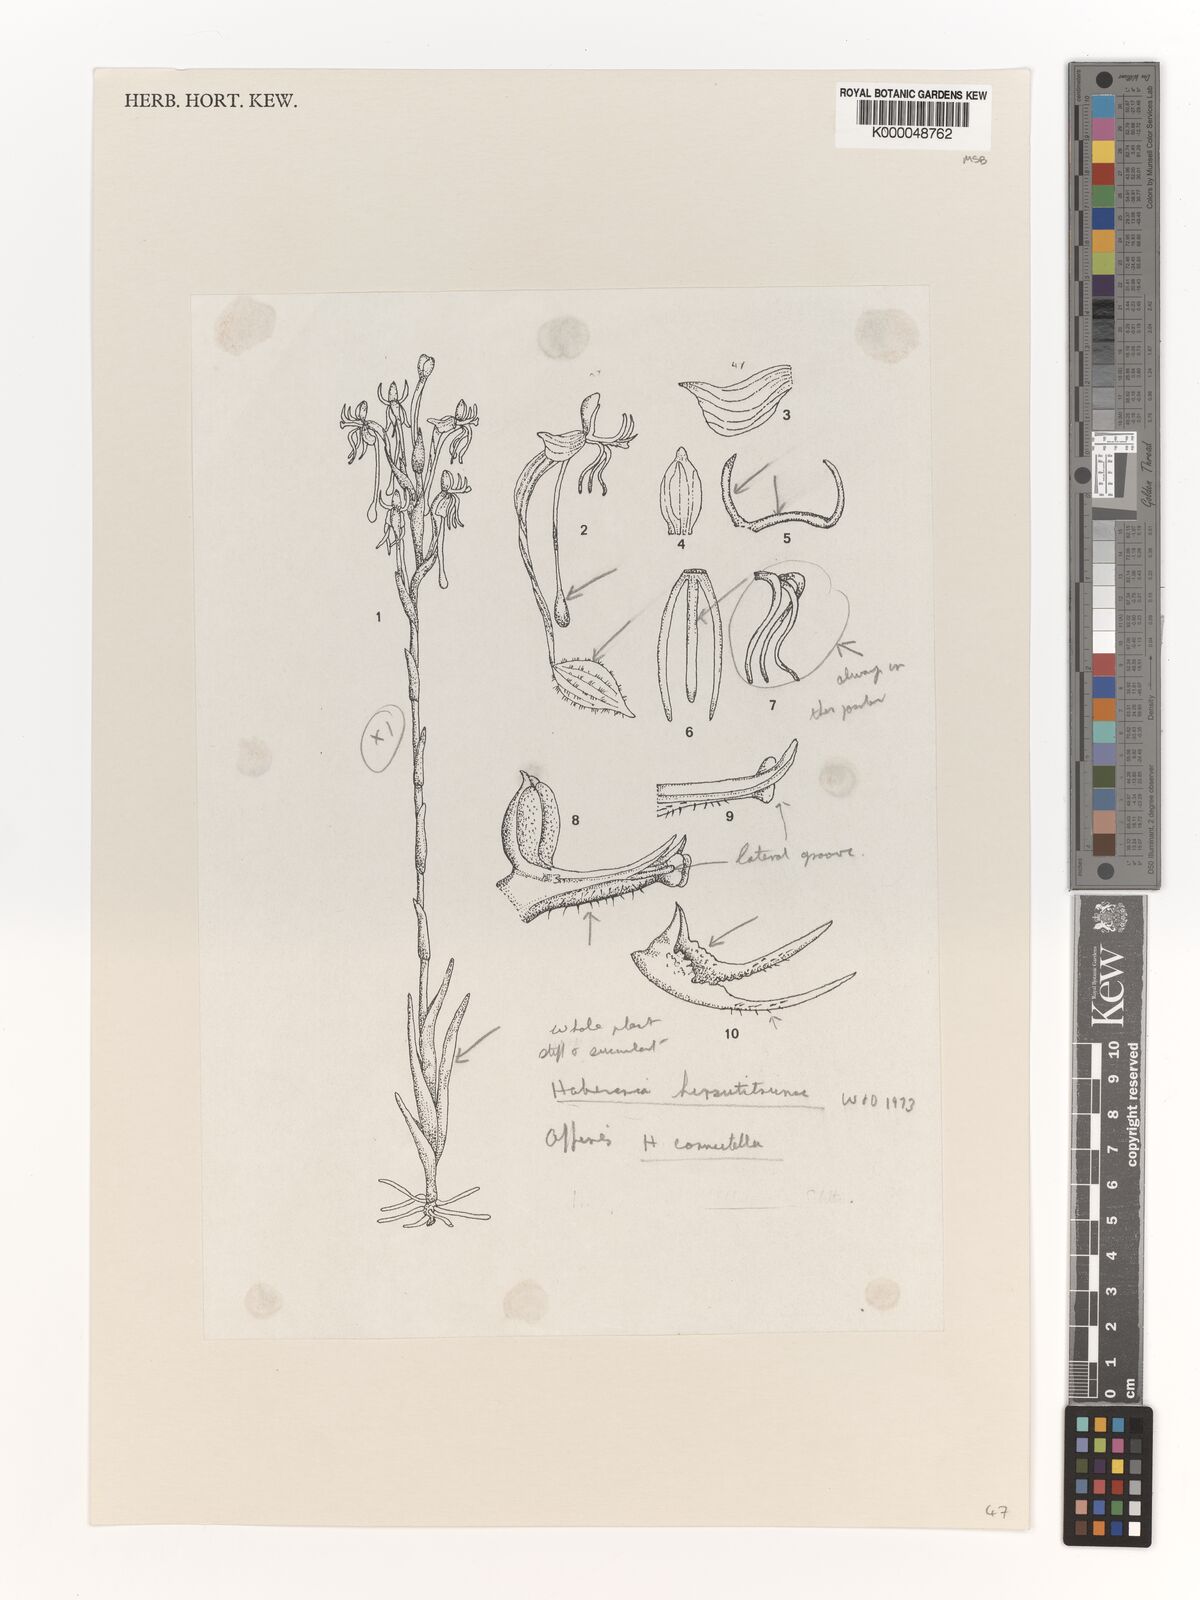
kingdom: Plantae
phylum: Tracheophyta
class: Liliopsida
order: Asparagales
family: Orchidaceae
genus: Habenaria
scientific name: Habenaria
